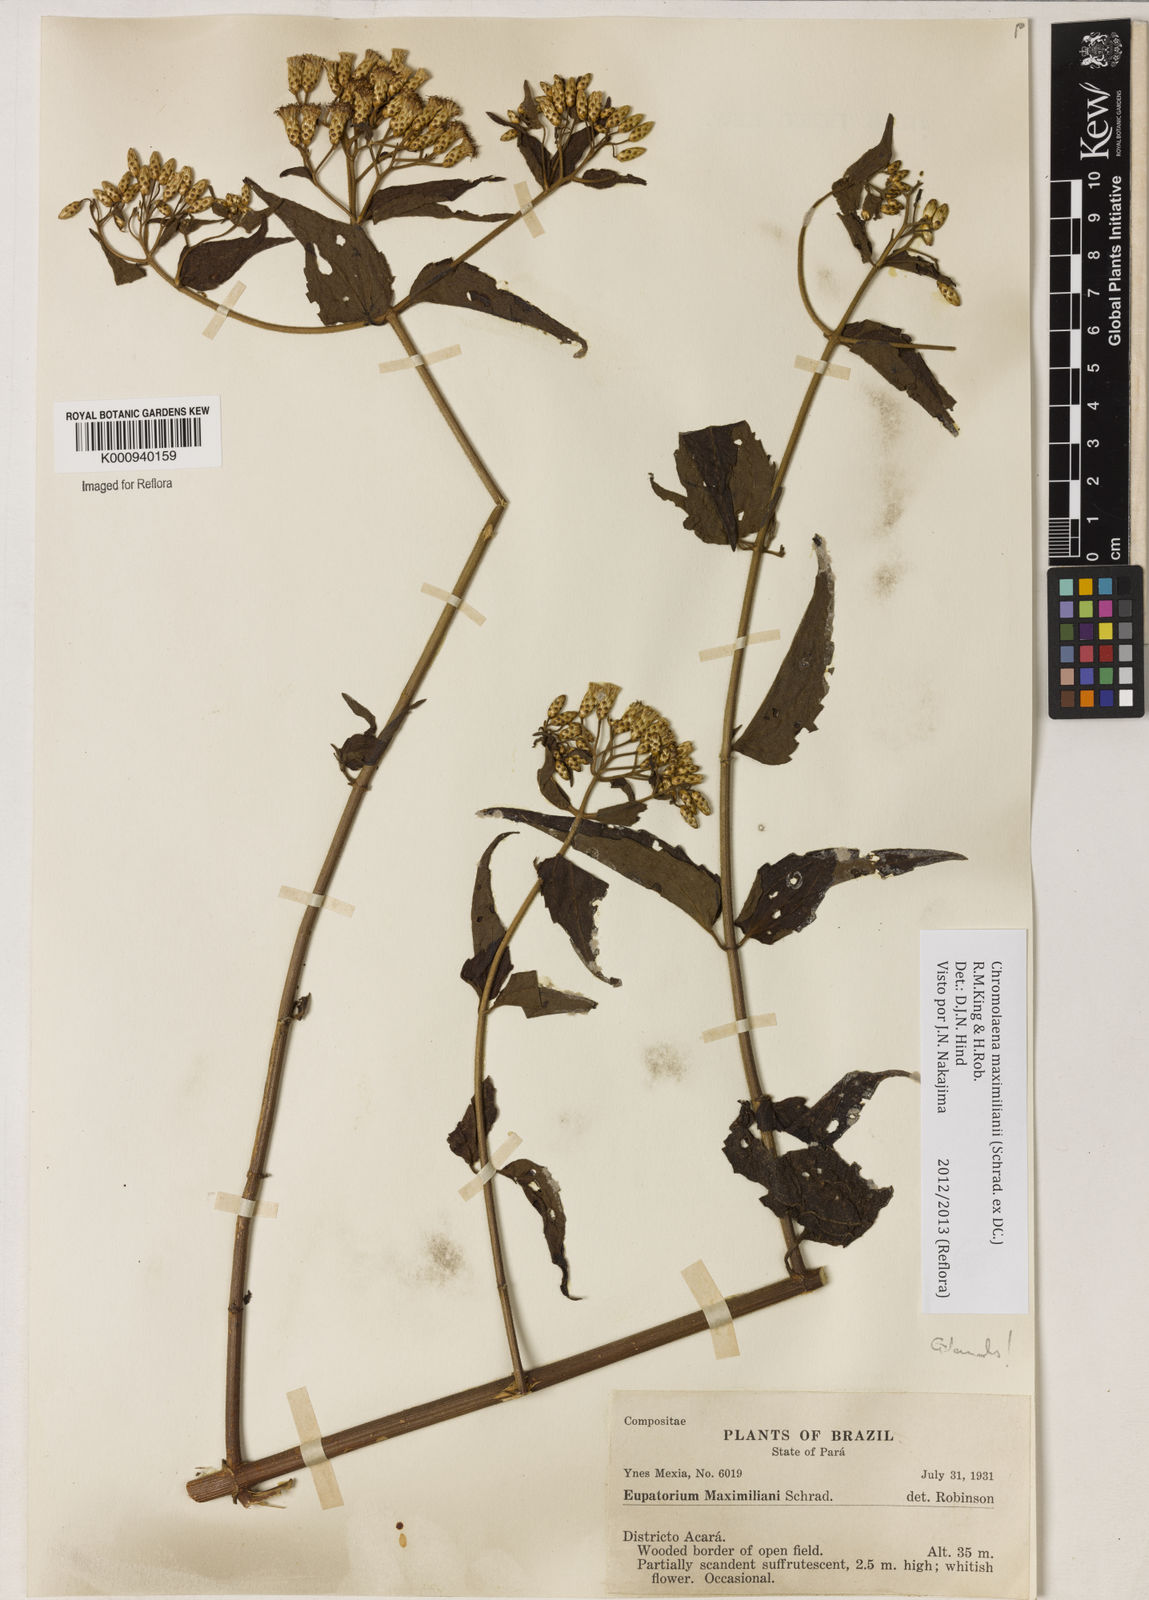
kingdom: Plantae
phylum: Tracheophyta
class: Magnoliopsida
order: Asterales
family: Asteraceae
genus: Chromolaena
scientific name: Chromolaena maximiliani
